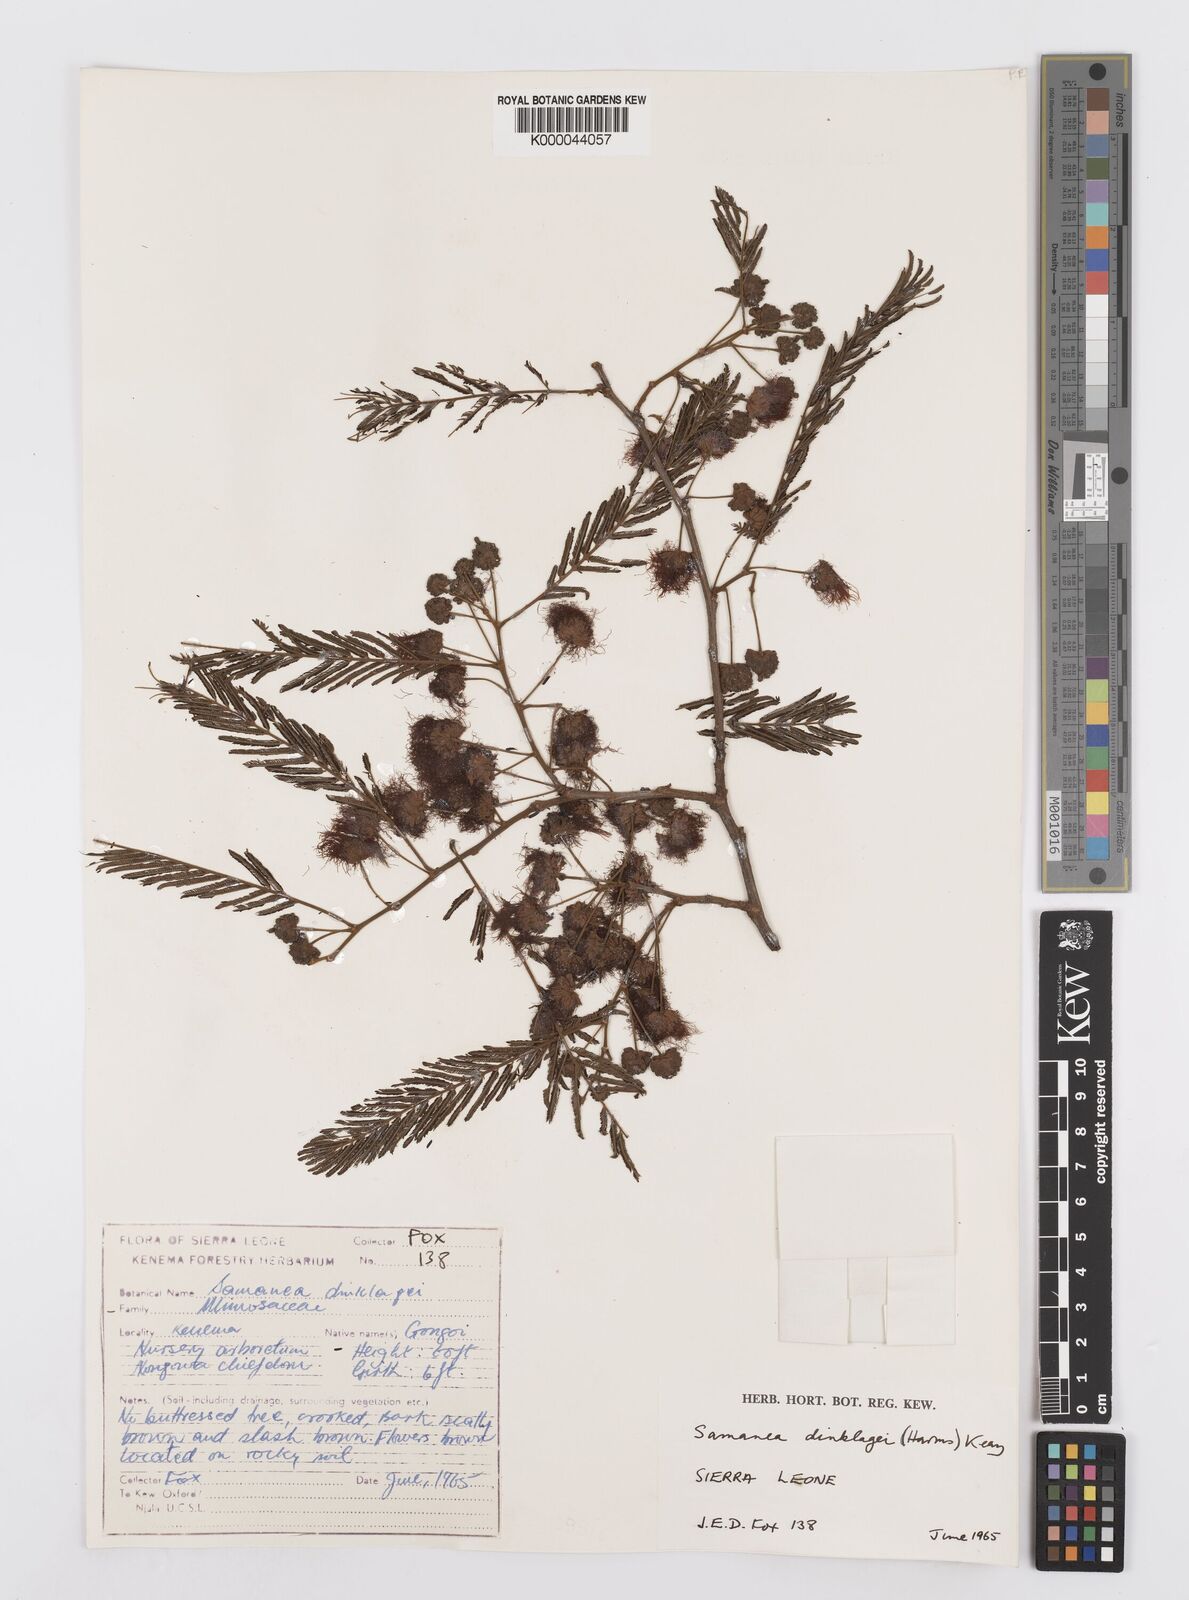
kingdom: Plantae
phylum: Tracheophyta
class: Magnoliopsida
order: Fabales
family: Fabaceae
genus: Albizia
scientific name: Albizia dinklagei
